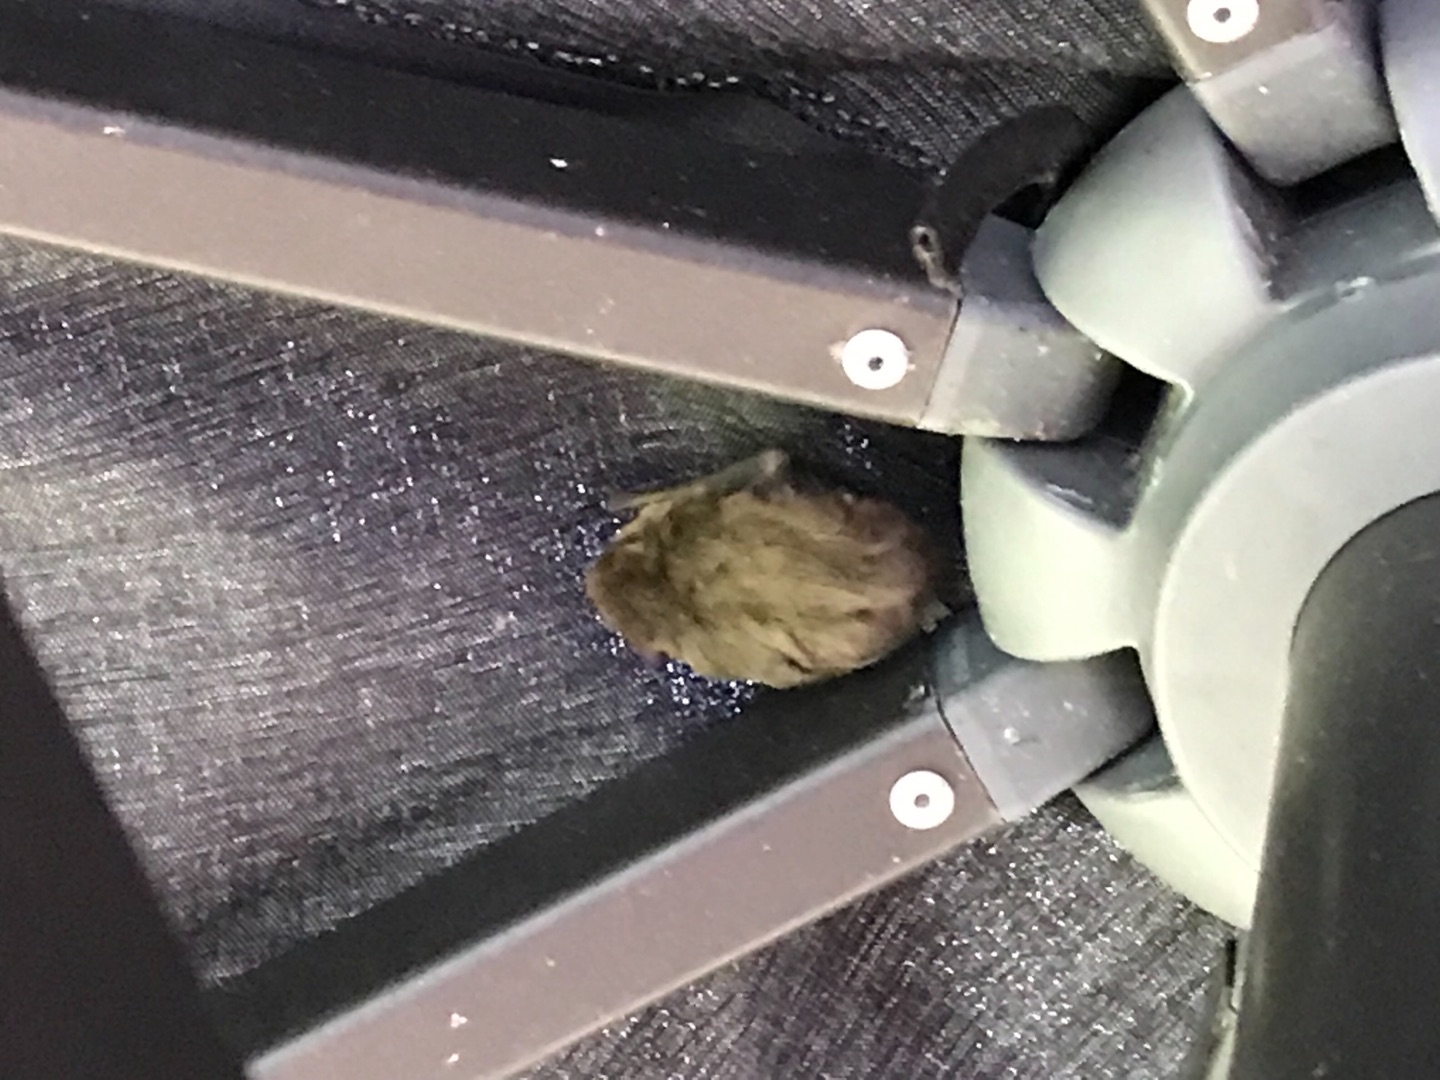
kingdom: Animalia
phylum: Chordata
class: Mammalia
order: Chiroptera
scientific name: Chiroptera
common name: Flagermus
